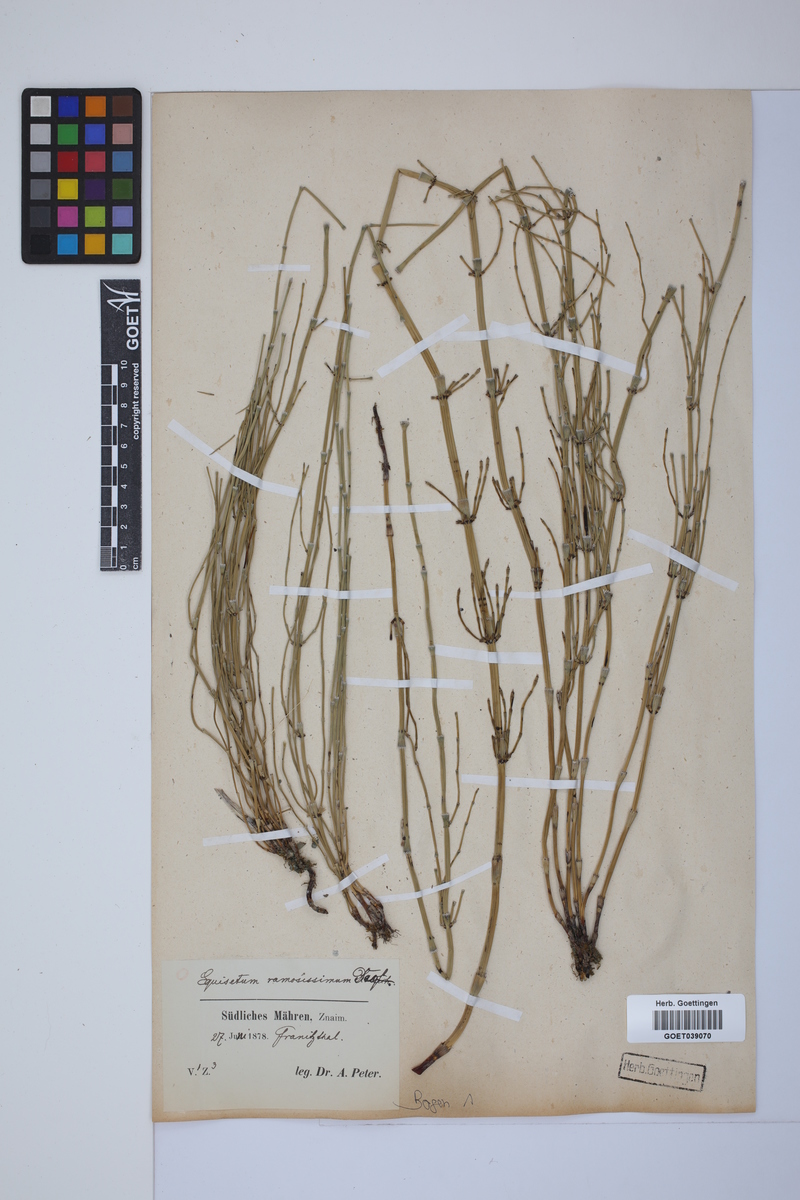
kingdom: Plantae
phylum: Tracheophyta
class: Polypodiopsida
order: Equisetales
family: Equisetaceae
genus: Equisetum
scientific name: Equisetum giganteum
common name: Giant horsetail
